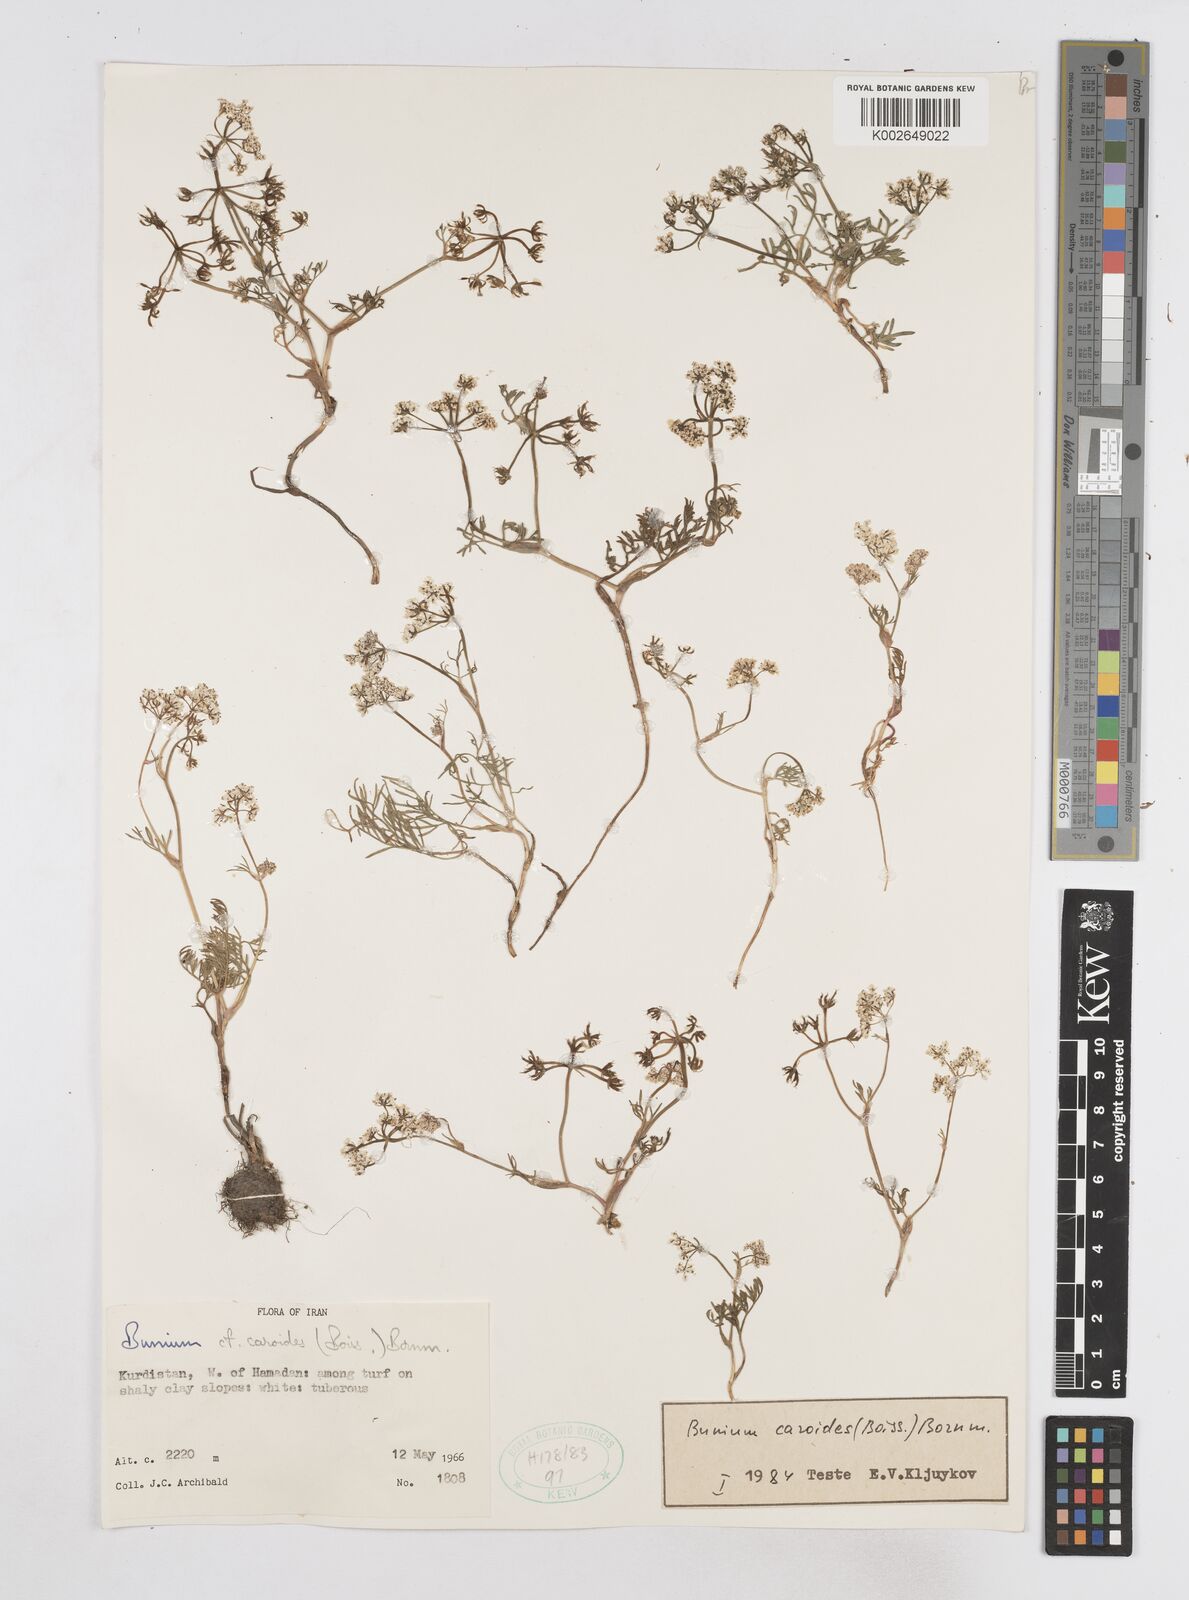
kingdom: Plantae
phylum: Tracheophyta
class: Magnoliopsida
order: Apiales
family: Apiaceae
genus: Elwendia
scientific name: Elwendia caroides
